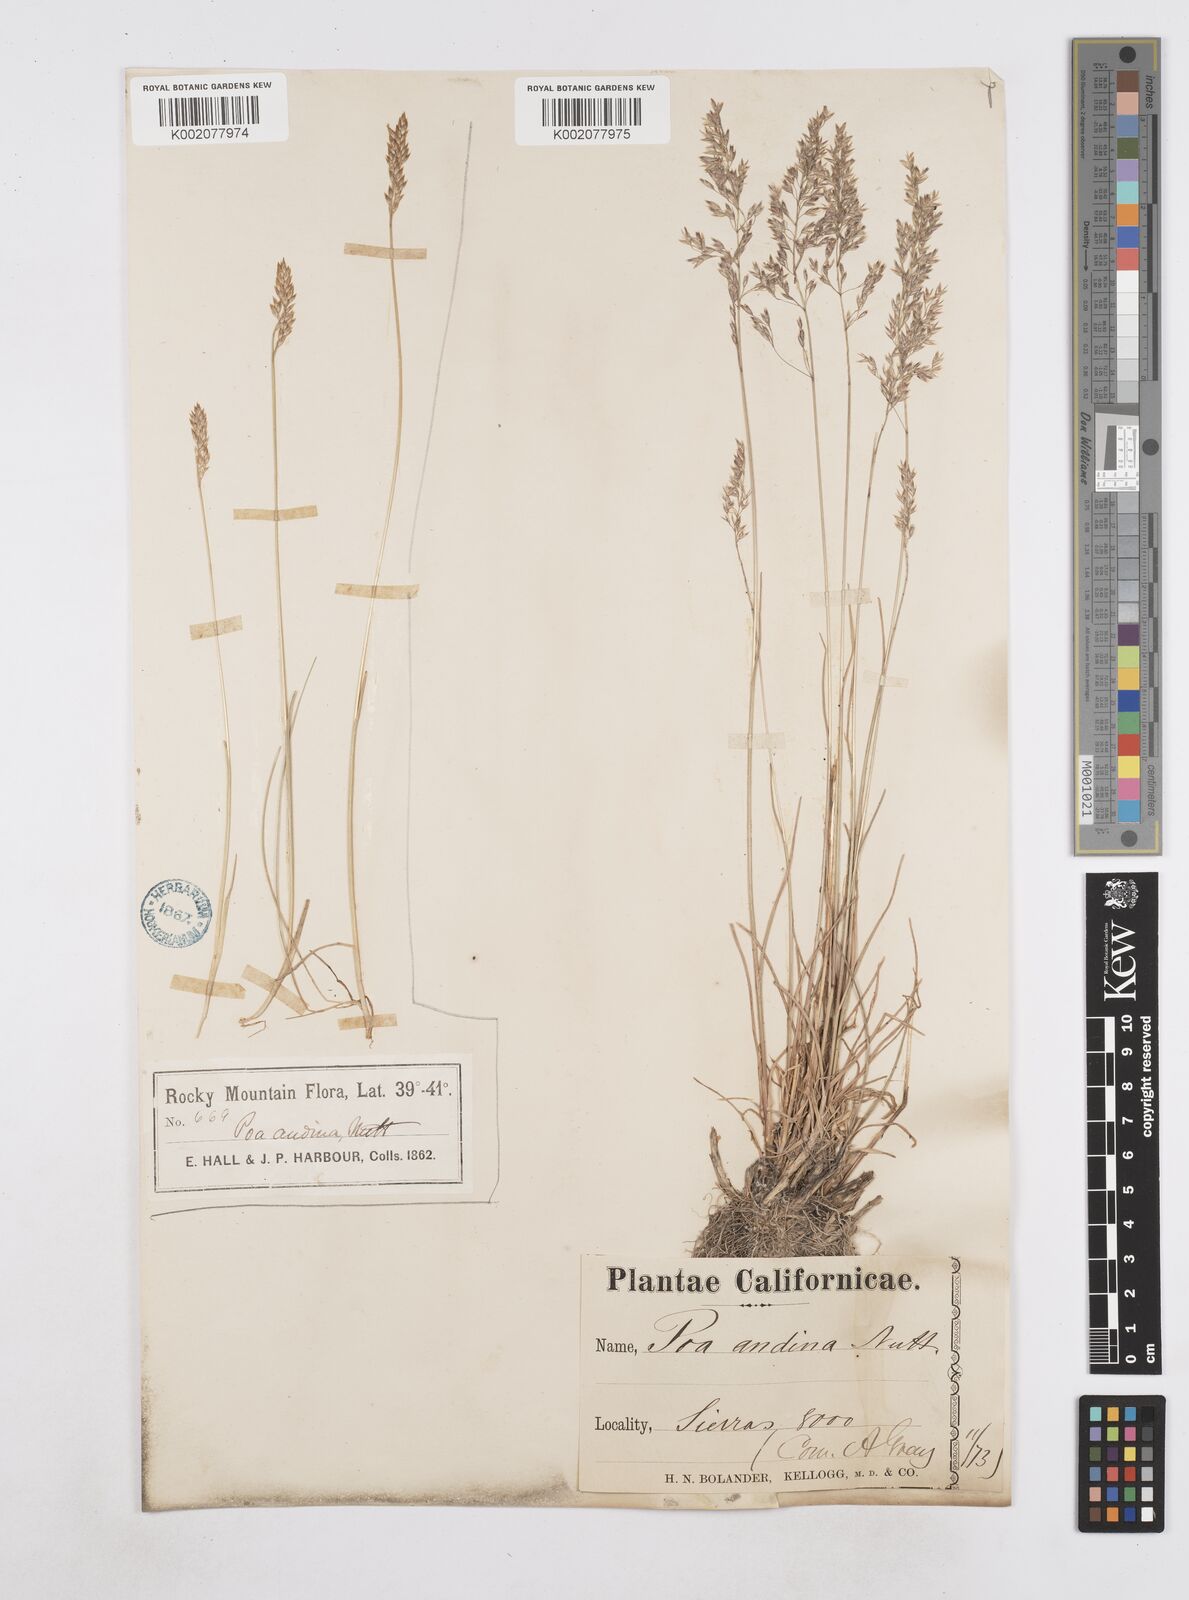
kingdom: Plantae
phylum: Tracheophyta
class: Liliopsida
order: Poales
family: Poaceae
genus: Poa
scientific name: Poa arida
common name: Plains bluegrass
